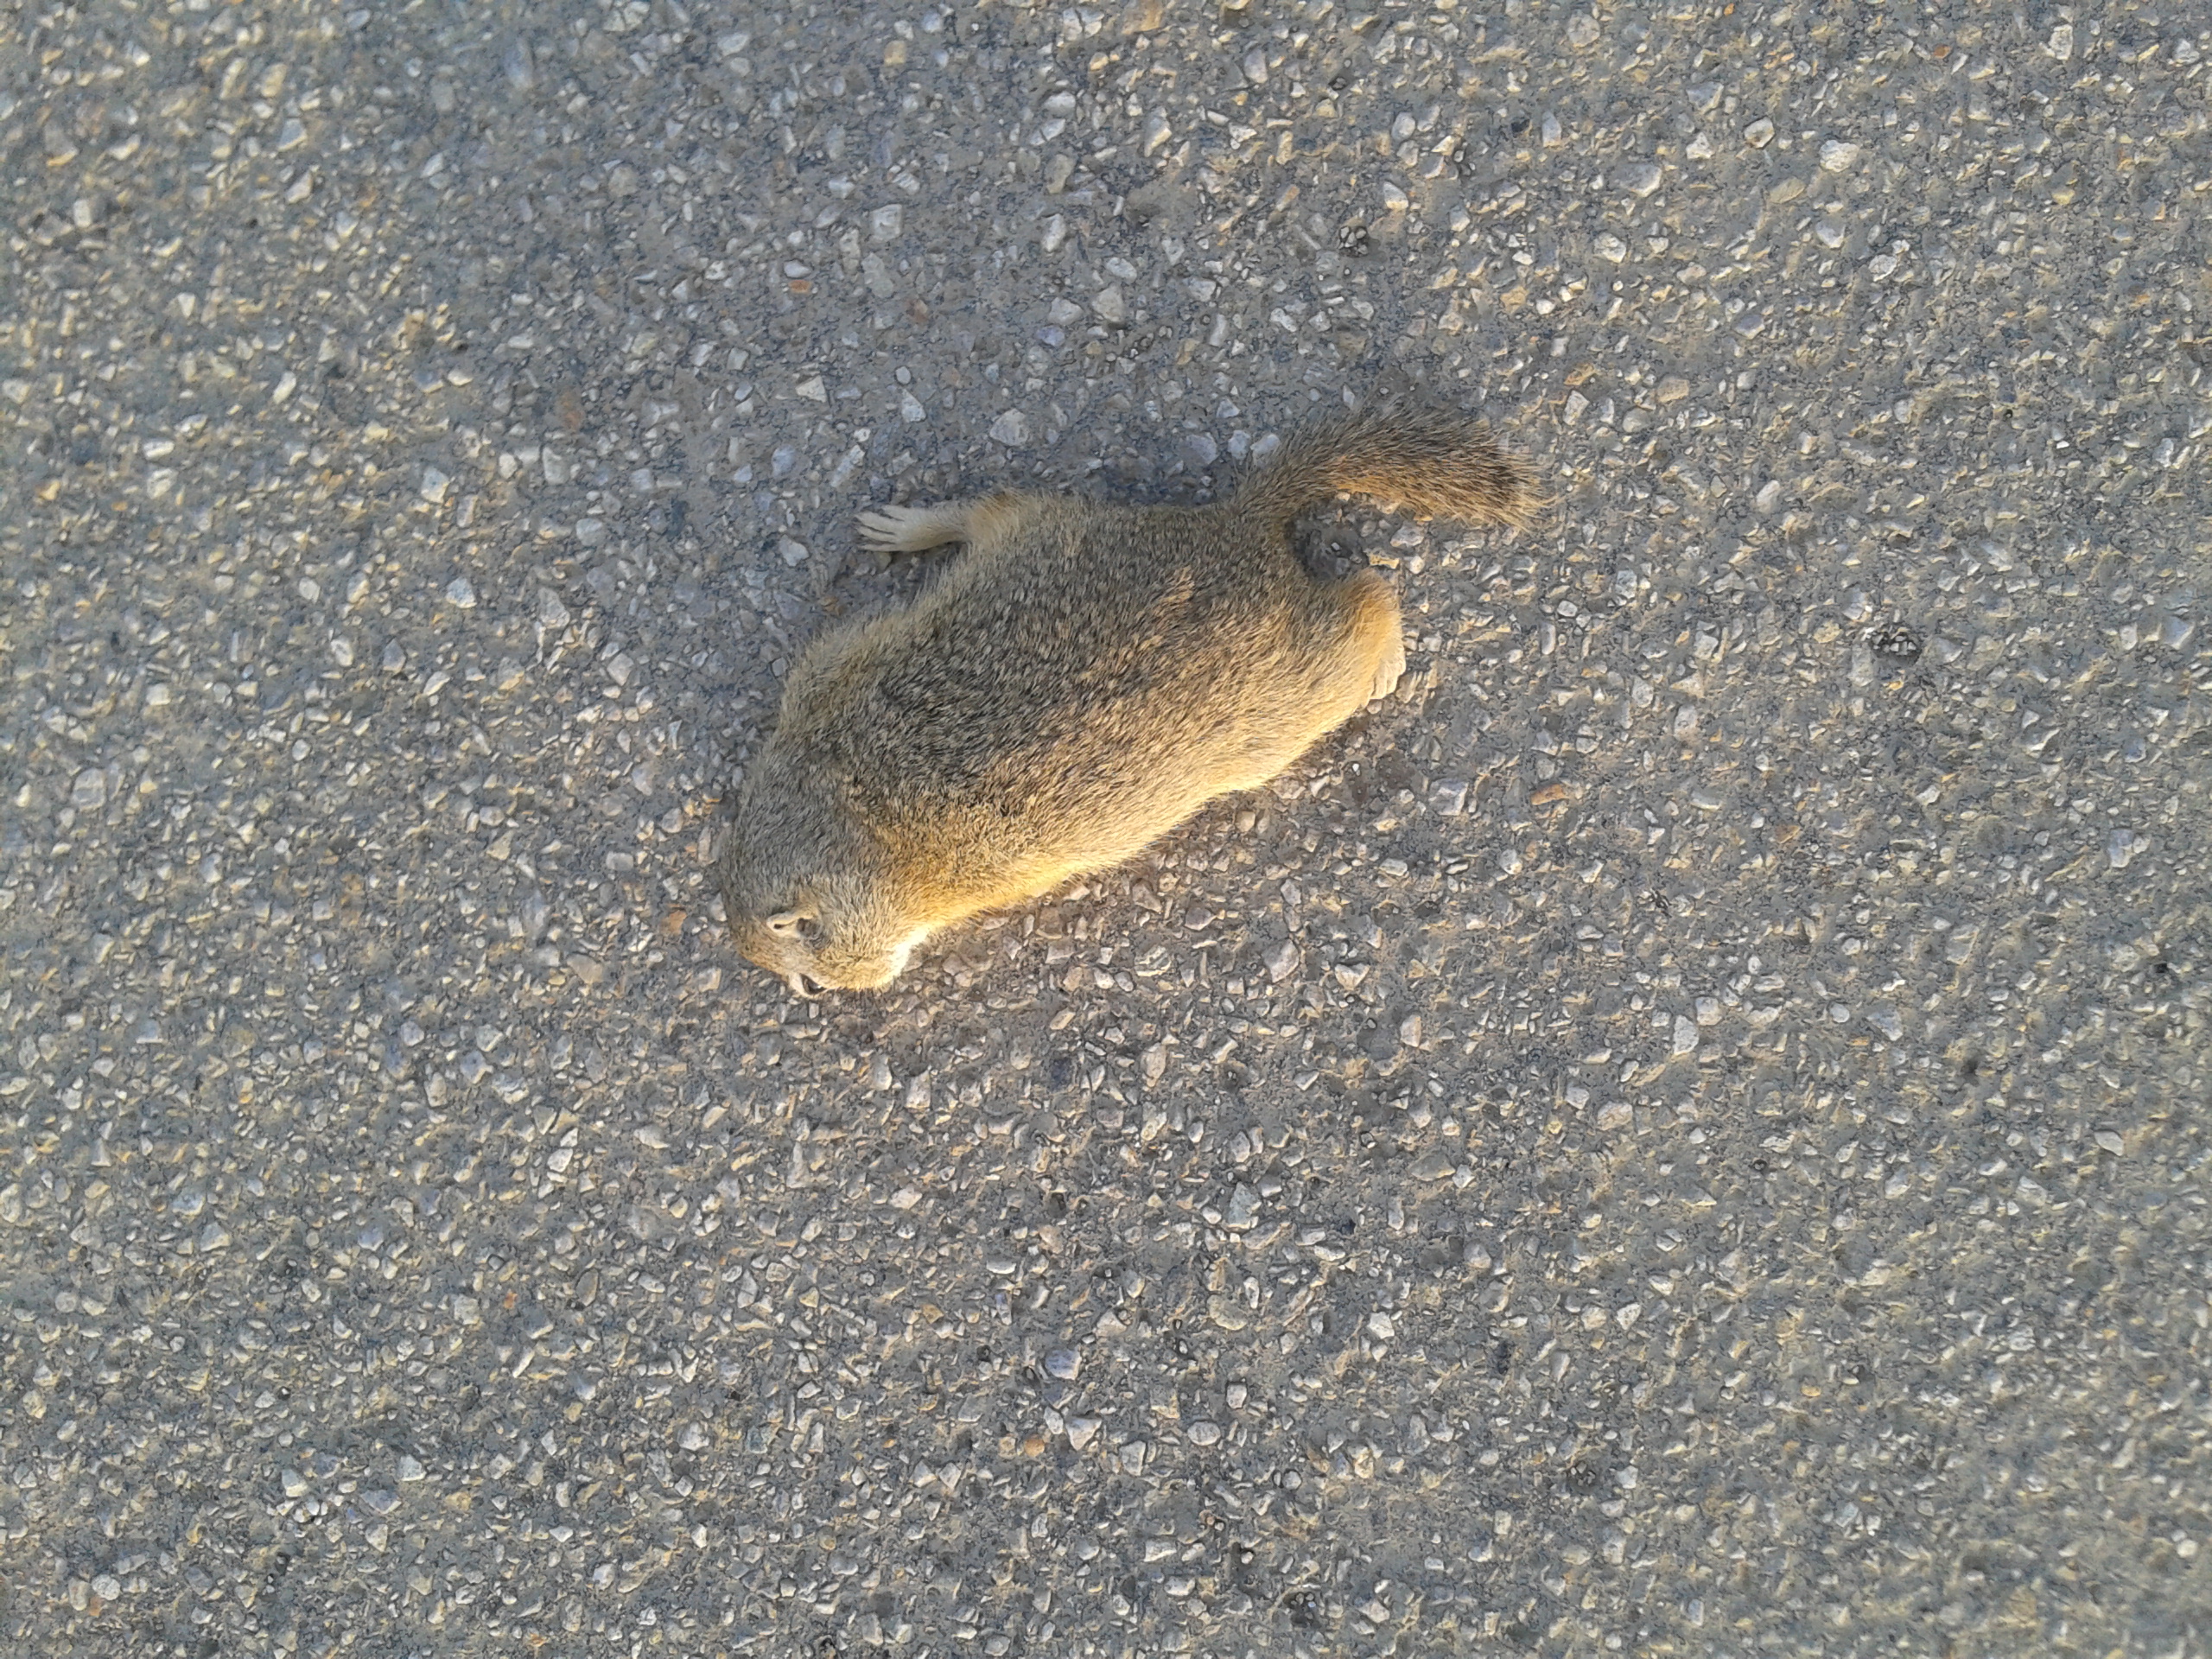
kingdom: Animalia
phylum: Chordata
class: Mammalia
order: Rodentia
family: Sciuridae
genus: Spermophilus
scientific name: Spermophilus citellus
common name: European ground squirrel
